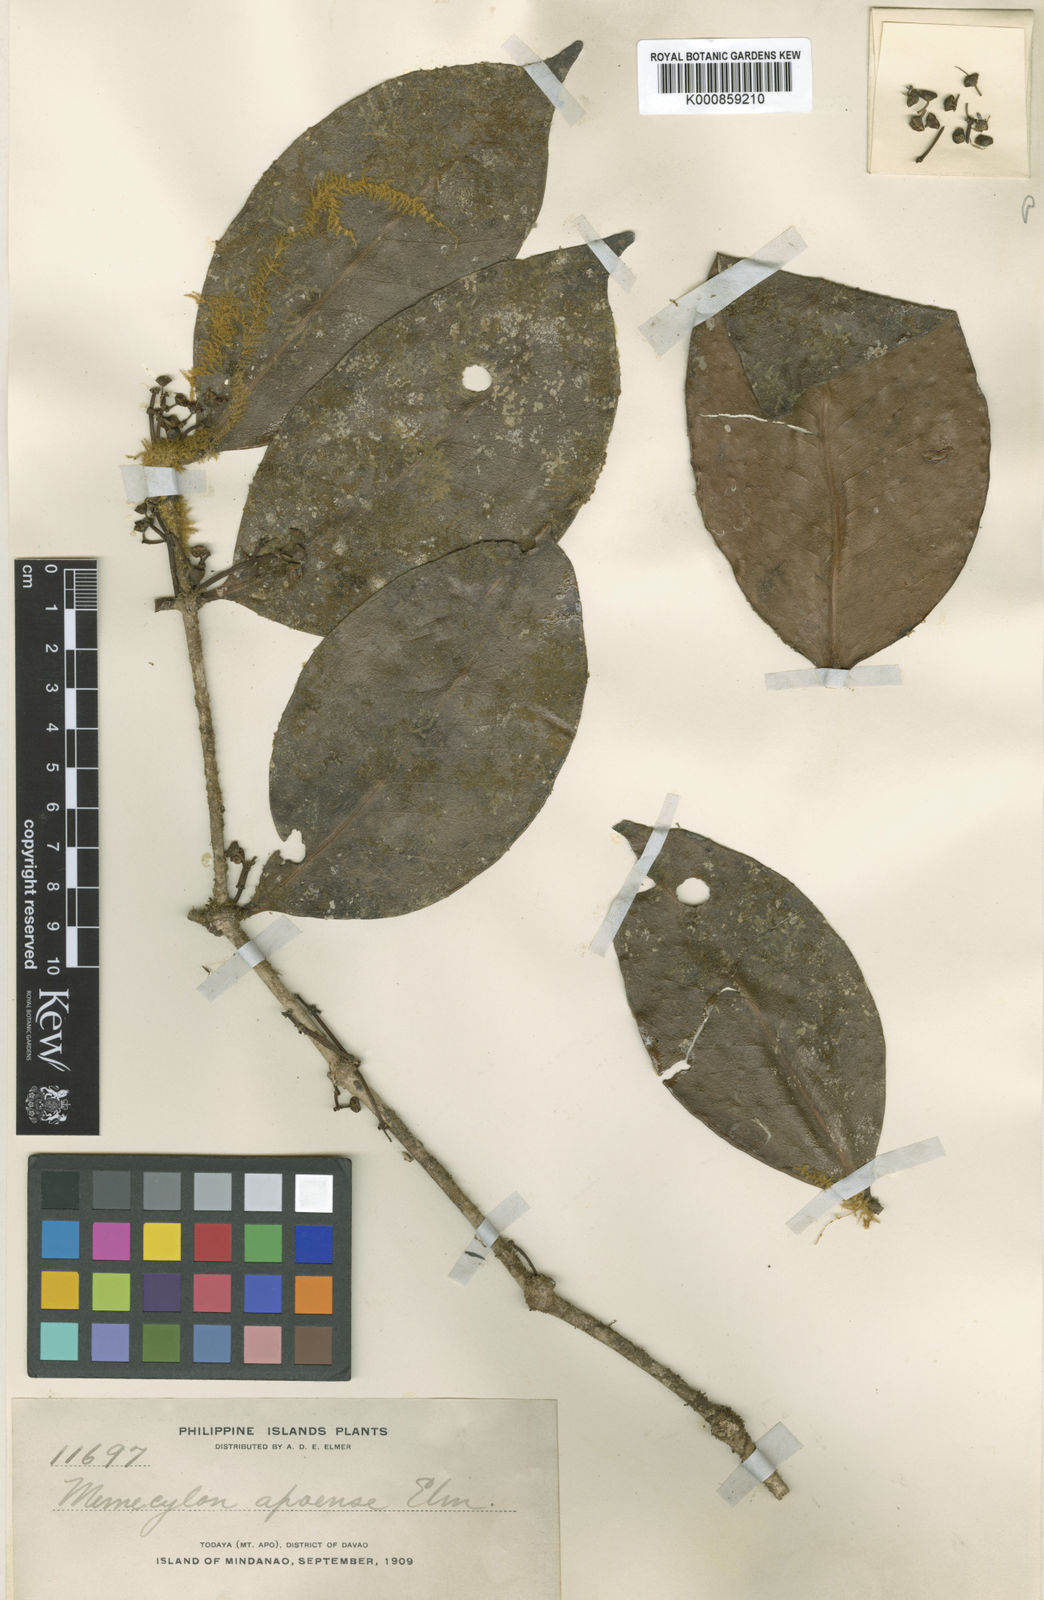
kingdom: Plantae
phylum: Tracheophyta
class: Magnoliopsida
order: Myrtales
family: Melastomataceae
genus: Memecylon
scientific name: Memecylon apoense
